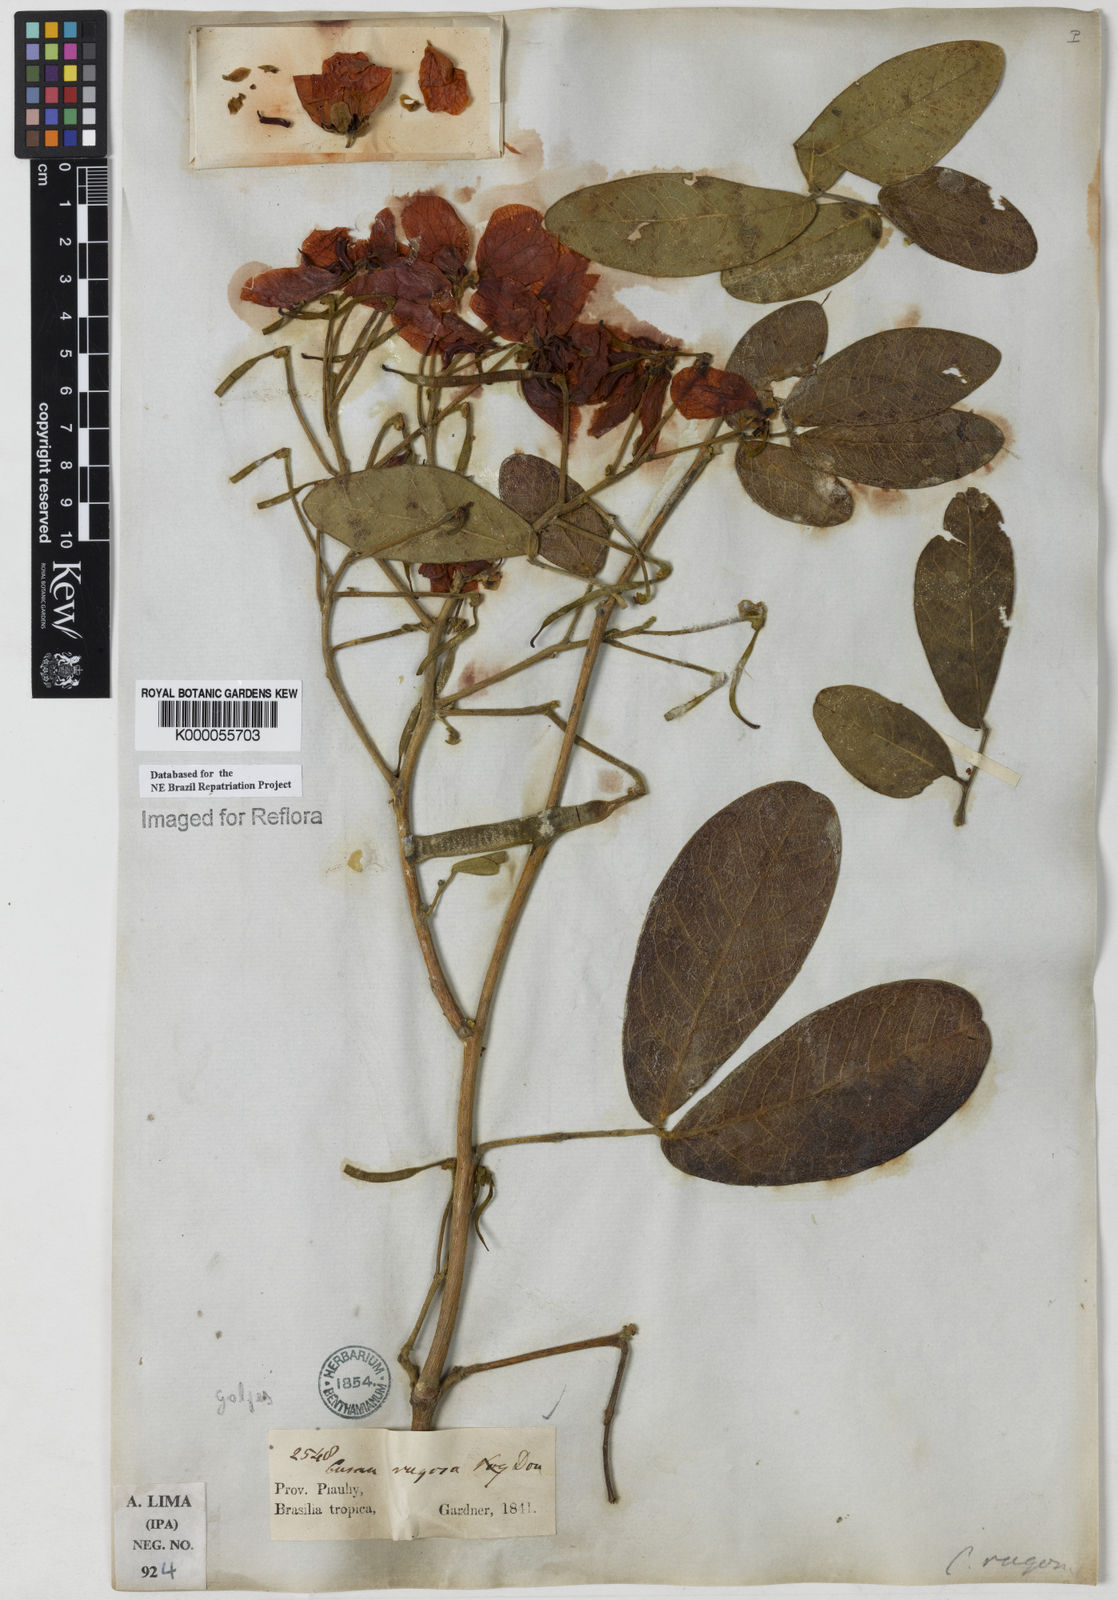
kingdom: Plantae
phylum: Tracheophyta
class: Magnoliopsida
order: Fabales
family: Fabaceae
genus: Senna
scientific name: Senna rugosa
